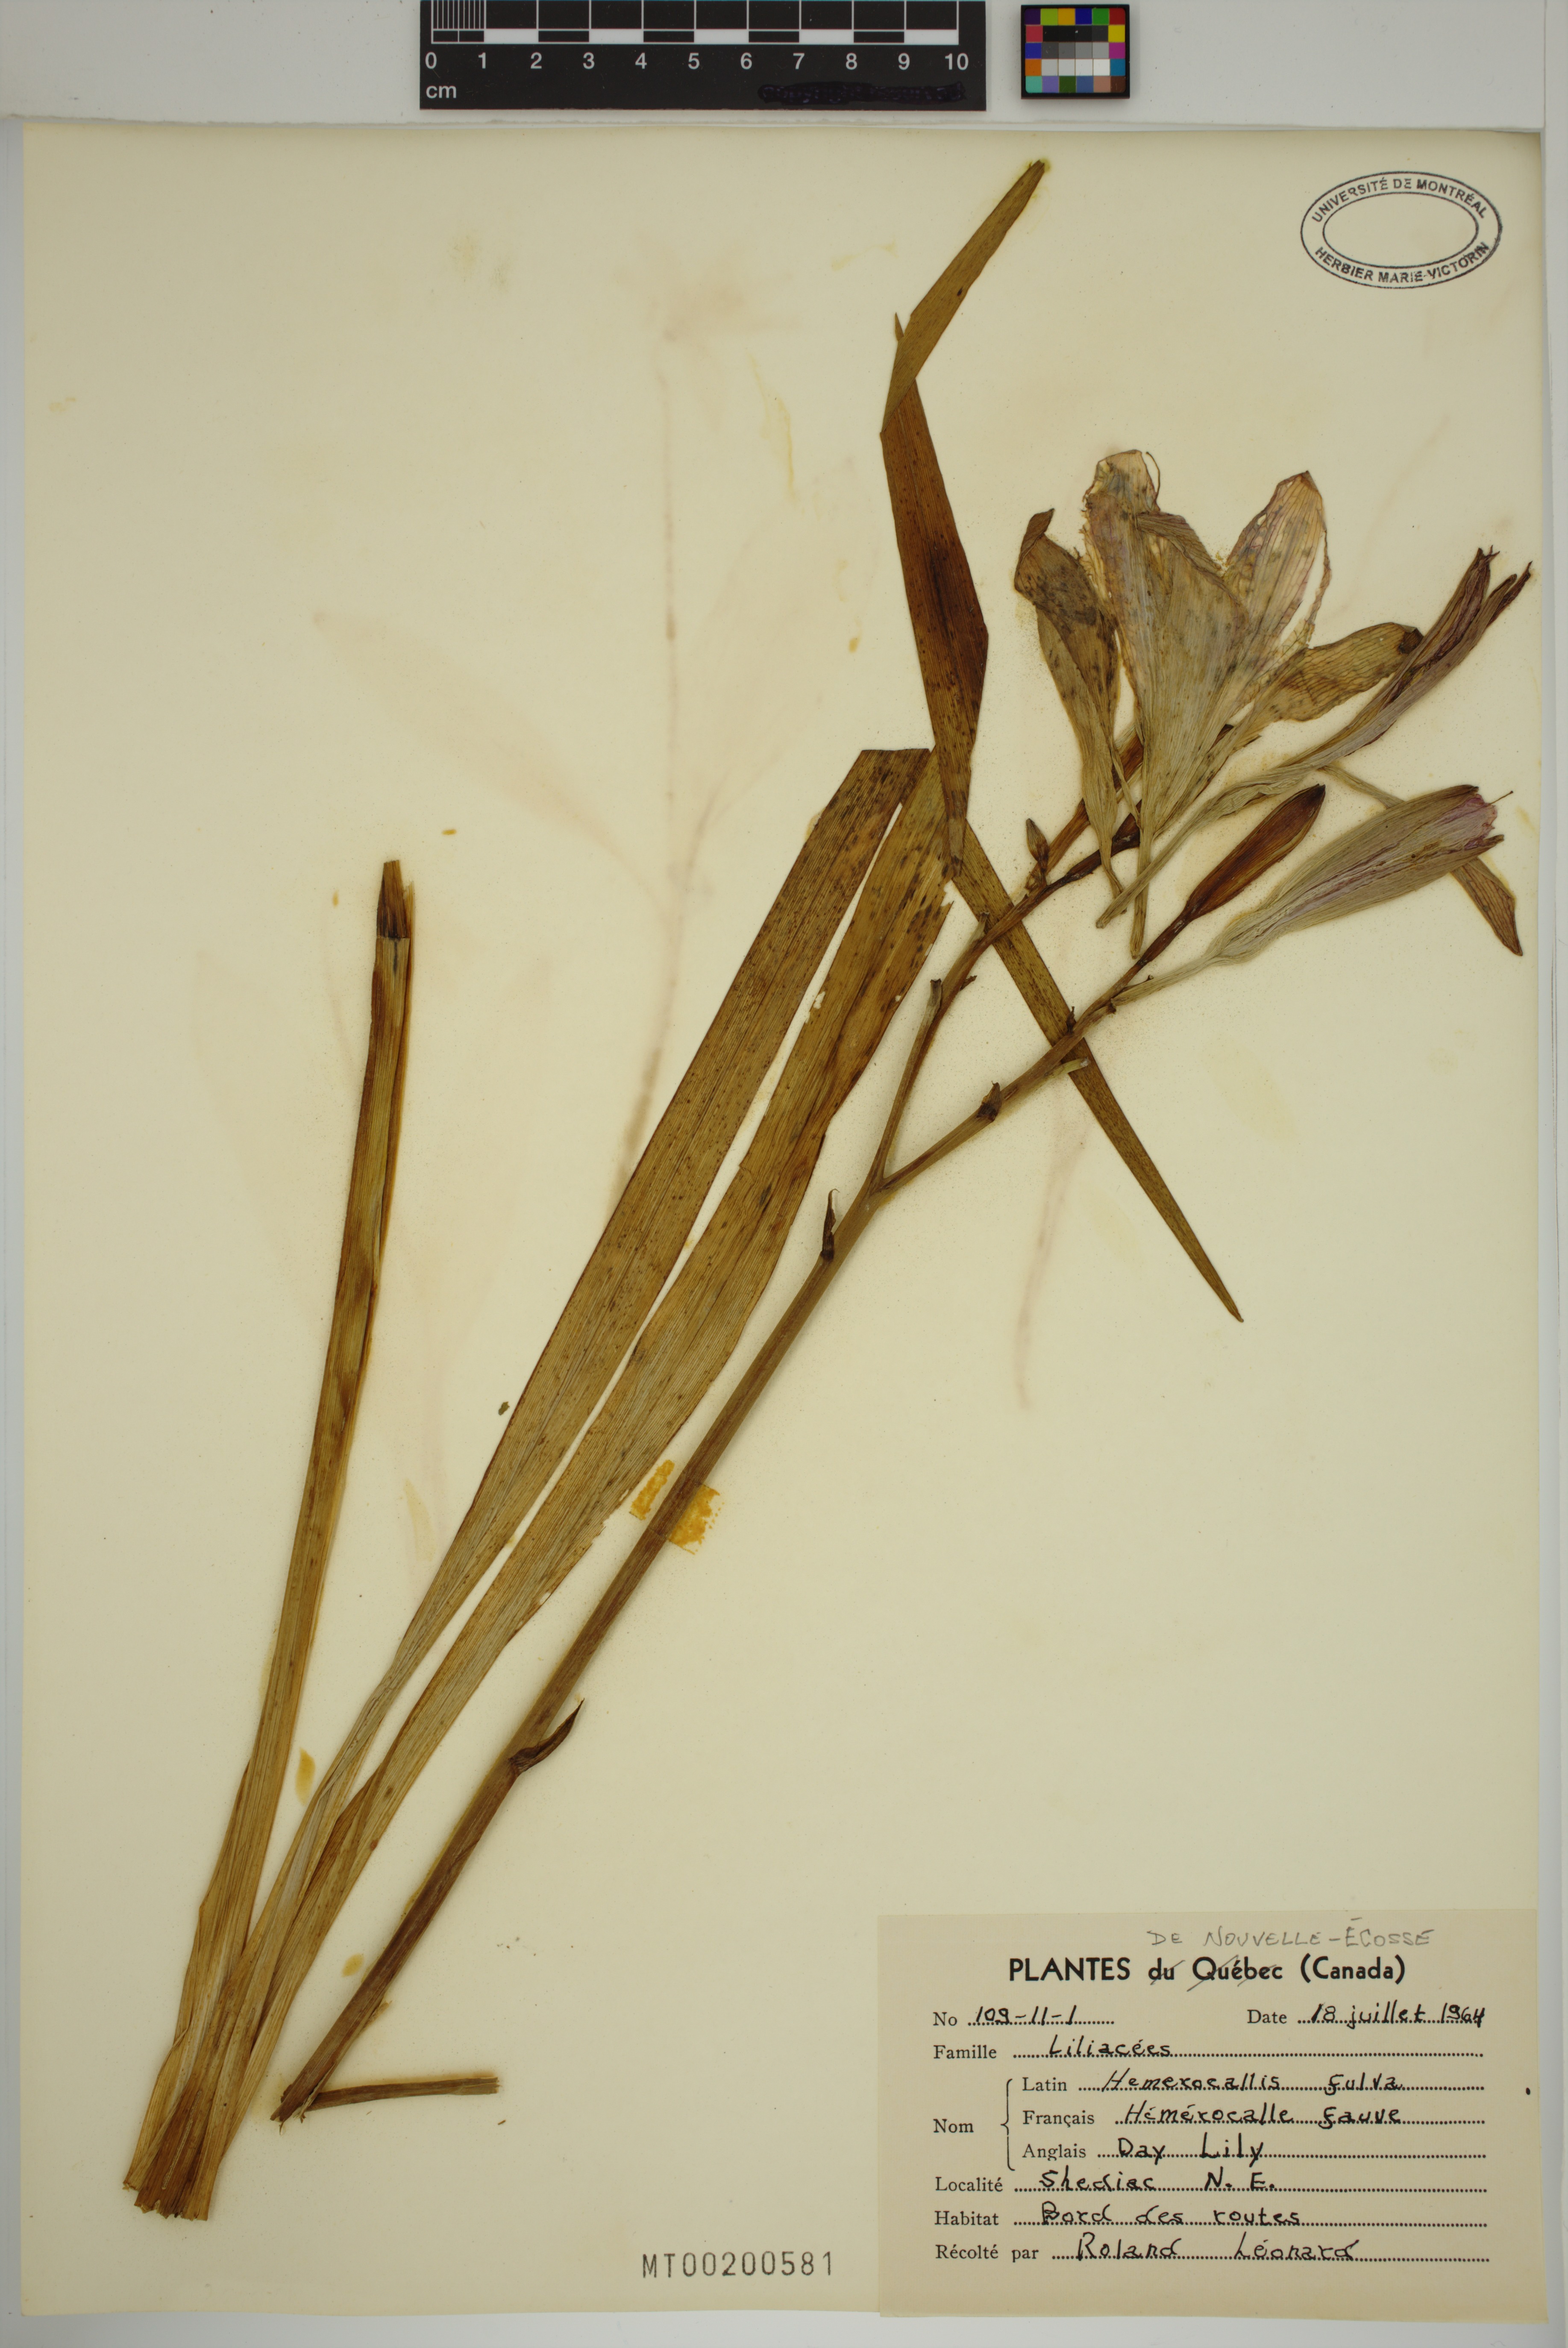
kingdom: Plantae
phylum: Tracheophyta
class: Liliopsida
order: Asparagales
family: Asphodelaceae
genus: Hemerocallis
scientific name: Hemerocallis fulva
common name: Orange day-lily
